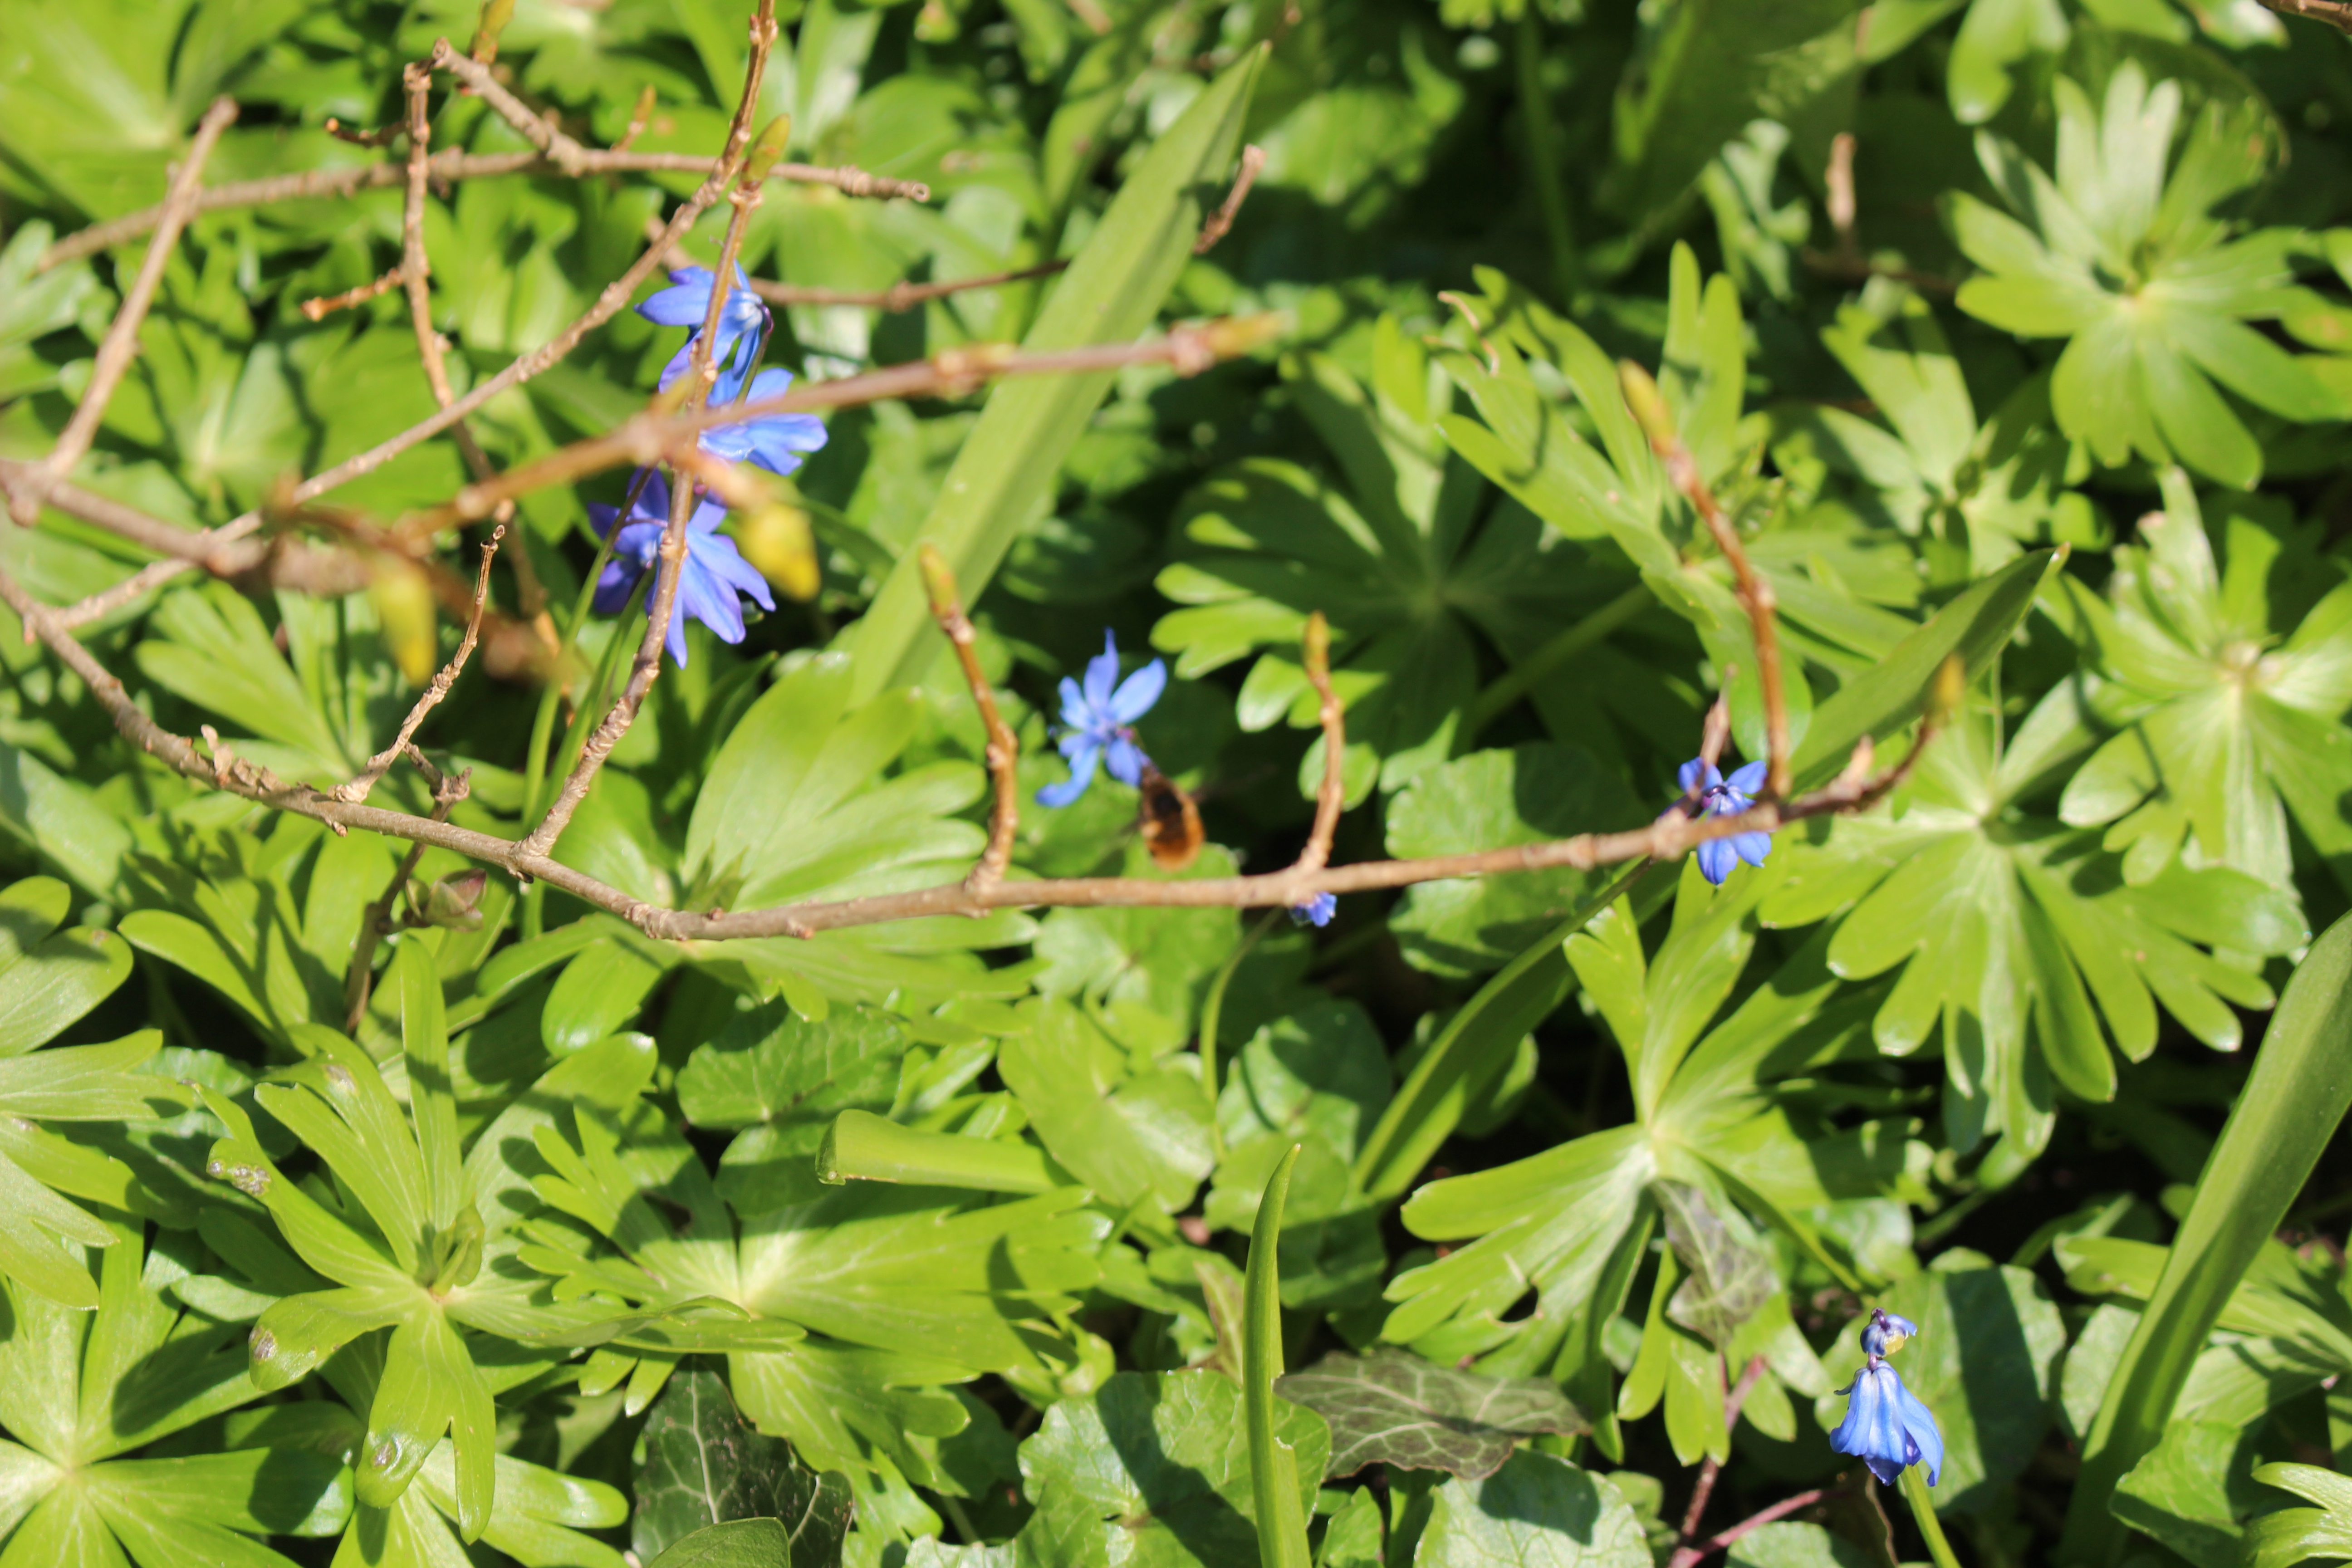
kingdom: Animalia
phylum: Arthropoda
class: Insecta
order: Diptera
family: Bombyliidae
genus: Bombylius
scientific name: Bombylius major
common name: Stor humleflue
